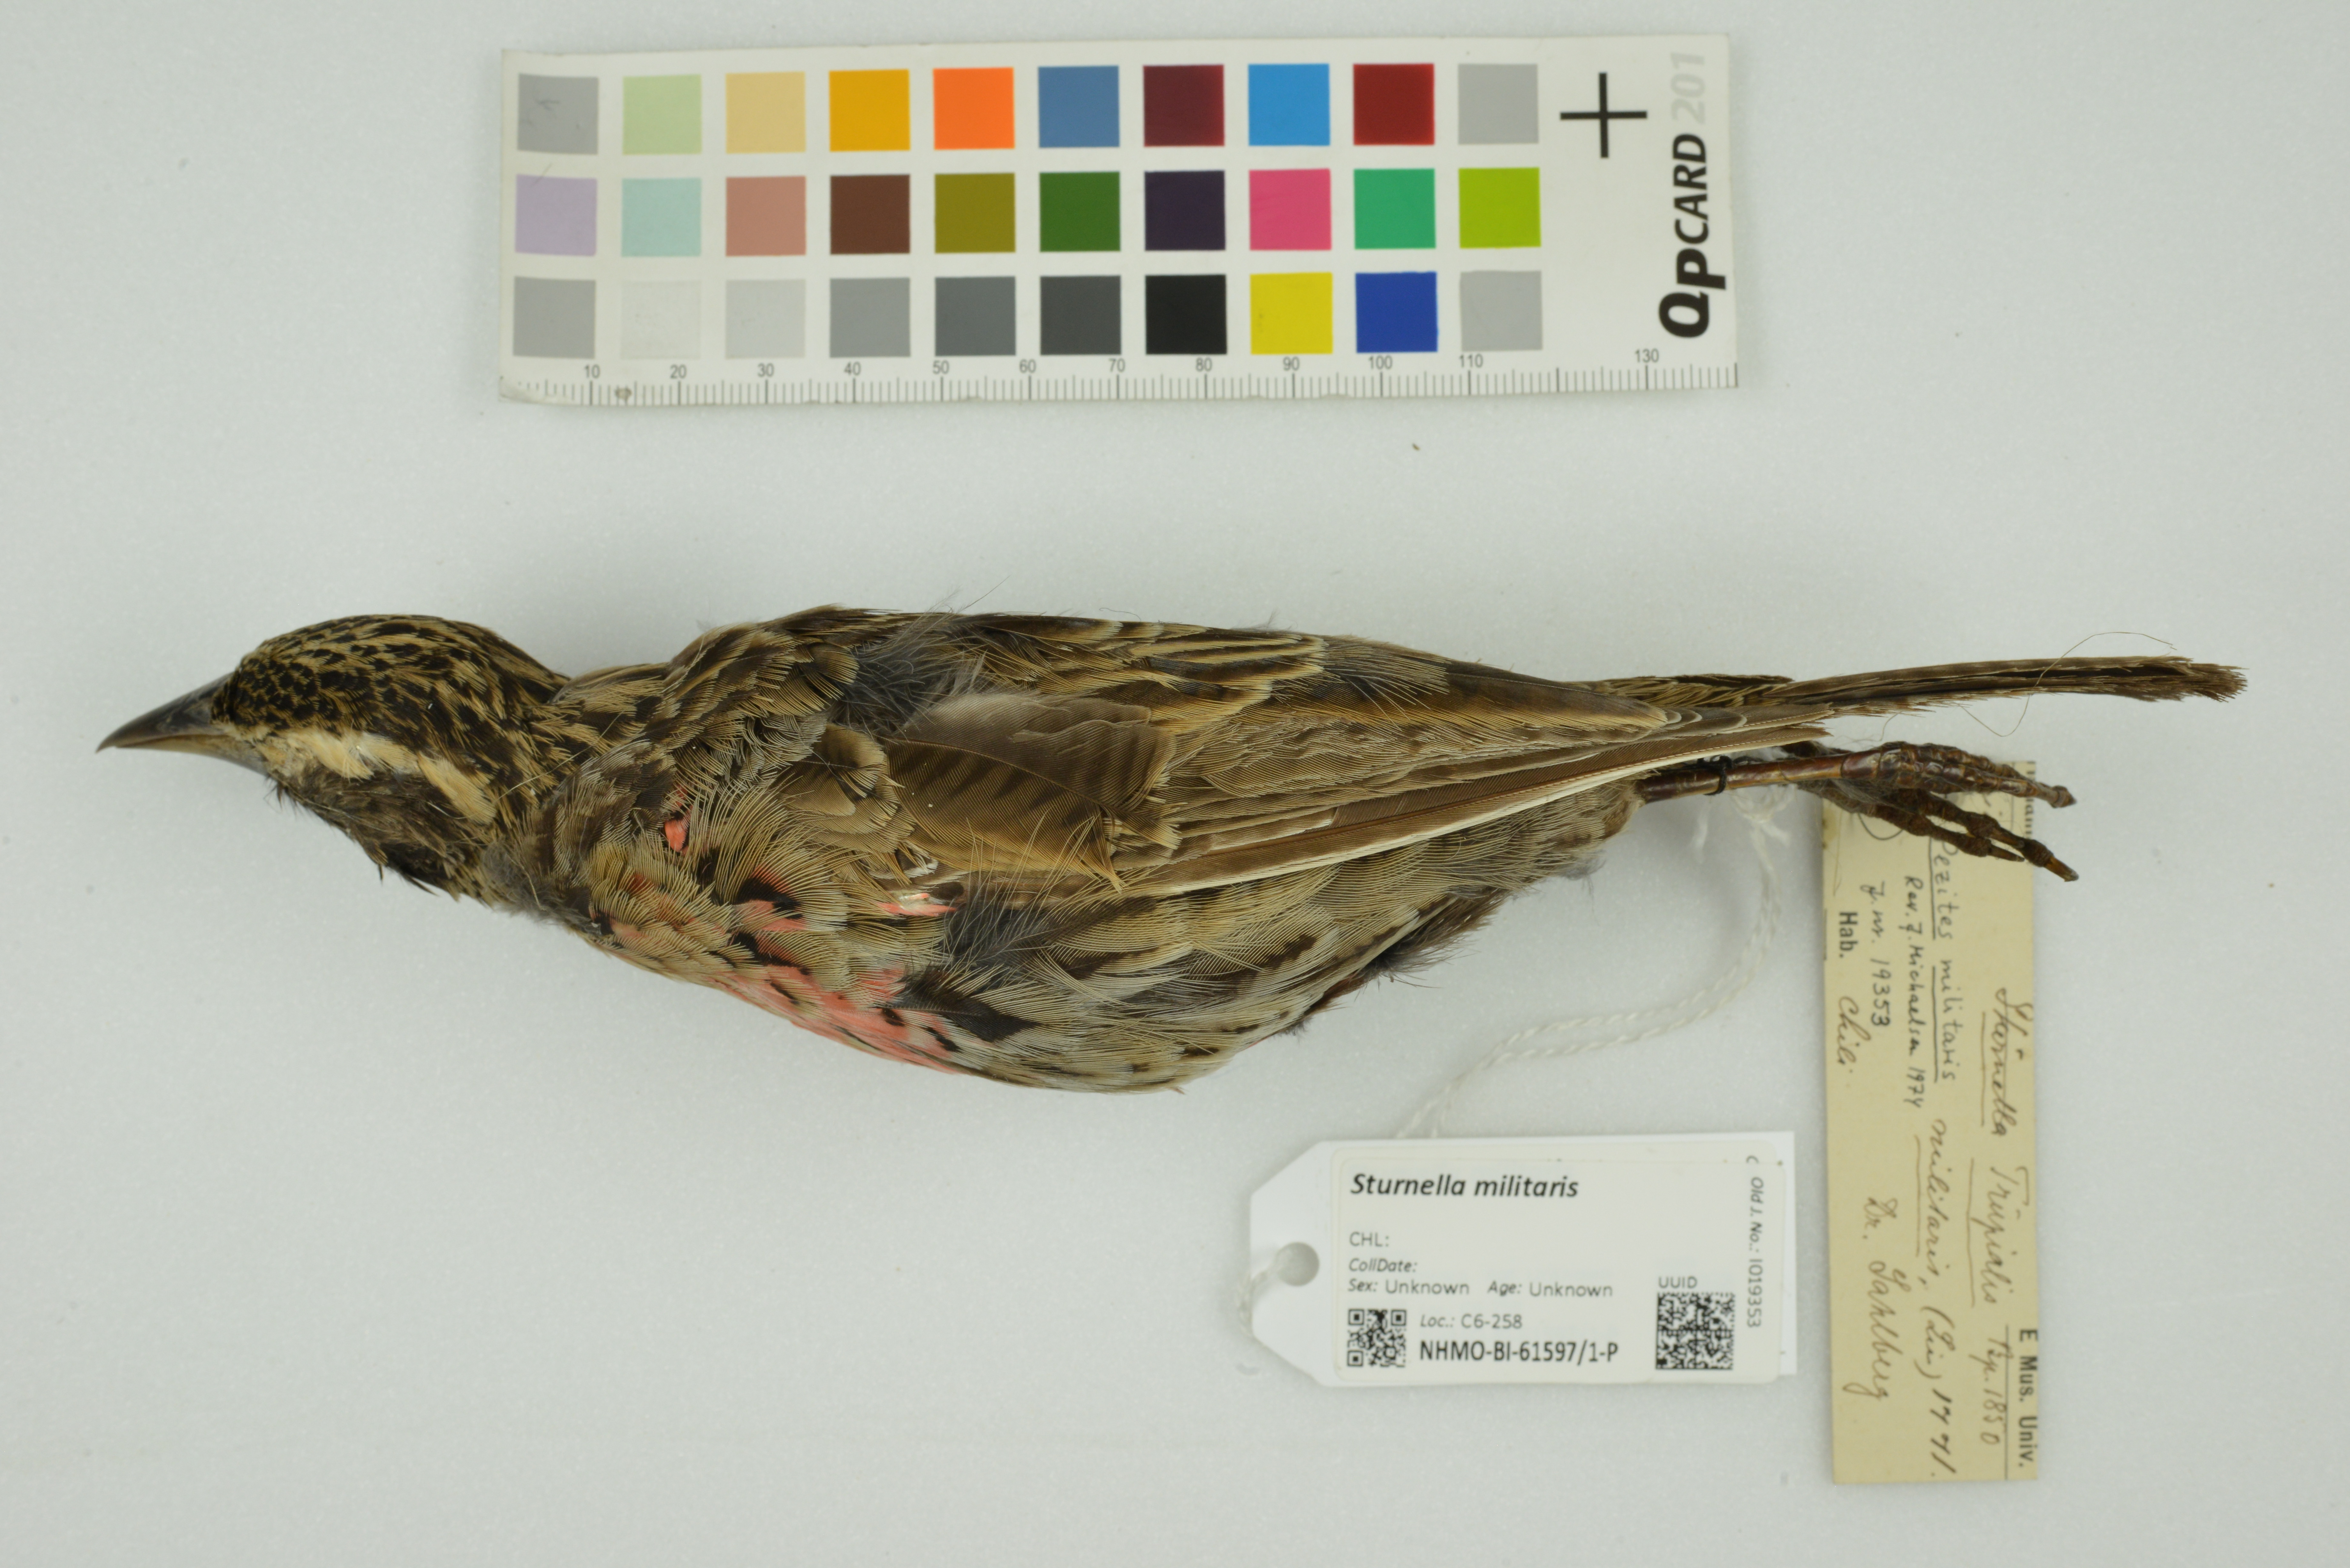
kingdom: Animalia
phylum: Chordata
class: Aves
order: Passeriformes
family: Icteridae
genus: Sturnella
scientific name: Sturnella militaris
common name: Red-breasted blackbird
